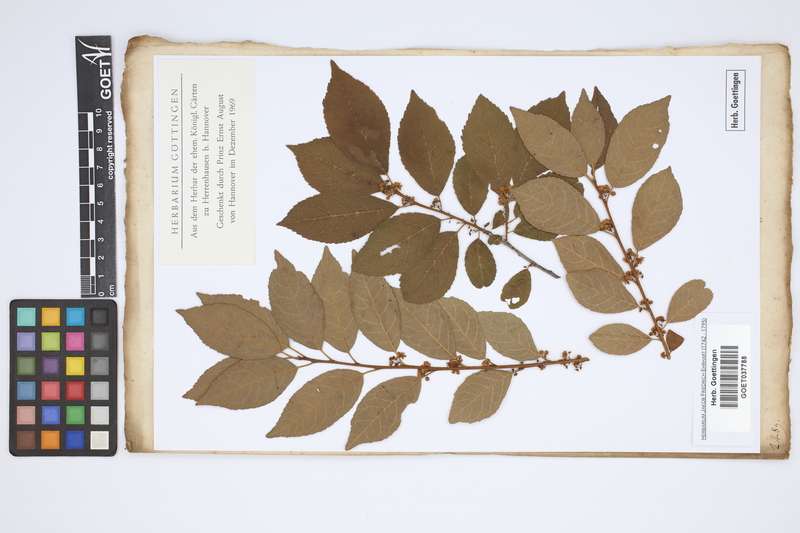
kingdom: Plantae
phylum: Tracheophyta
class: Magnoliopsida
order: Aquifoliales
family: Aquifoliaceae
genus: Ilex
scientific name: Ilex verticillata
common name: Virginia winterberry
